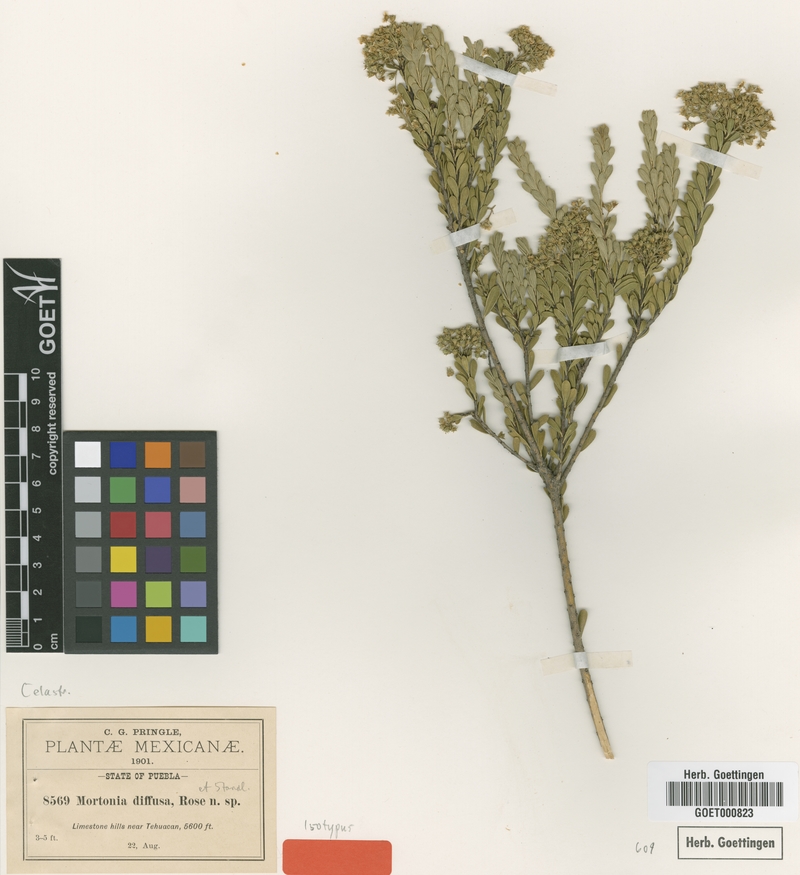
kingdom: Plantae
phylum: Tracheophyta
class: Magnoliopsida
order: Celastrales
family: Celastraceae
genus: Mortonia
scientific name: Mortonia diffusa
